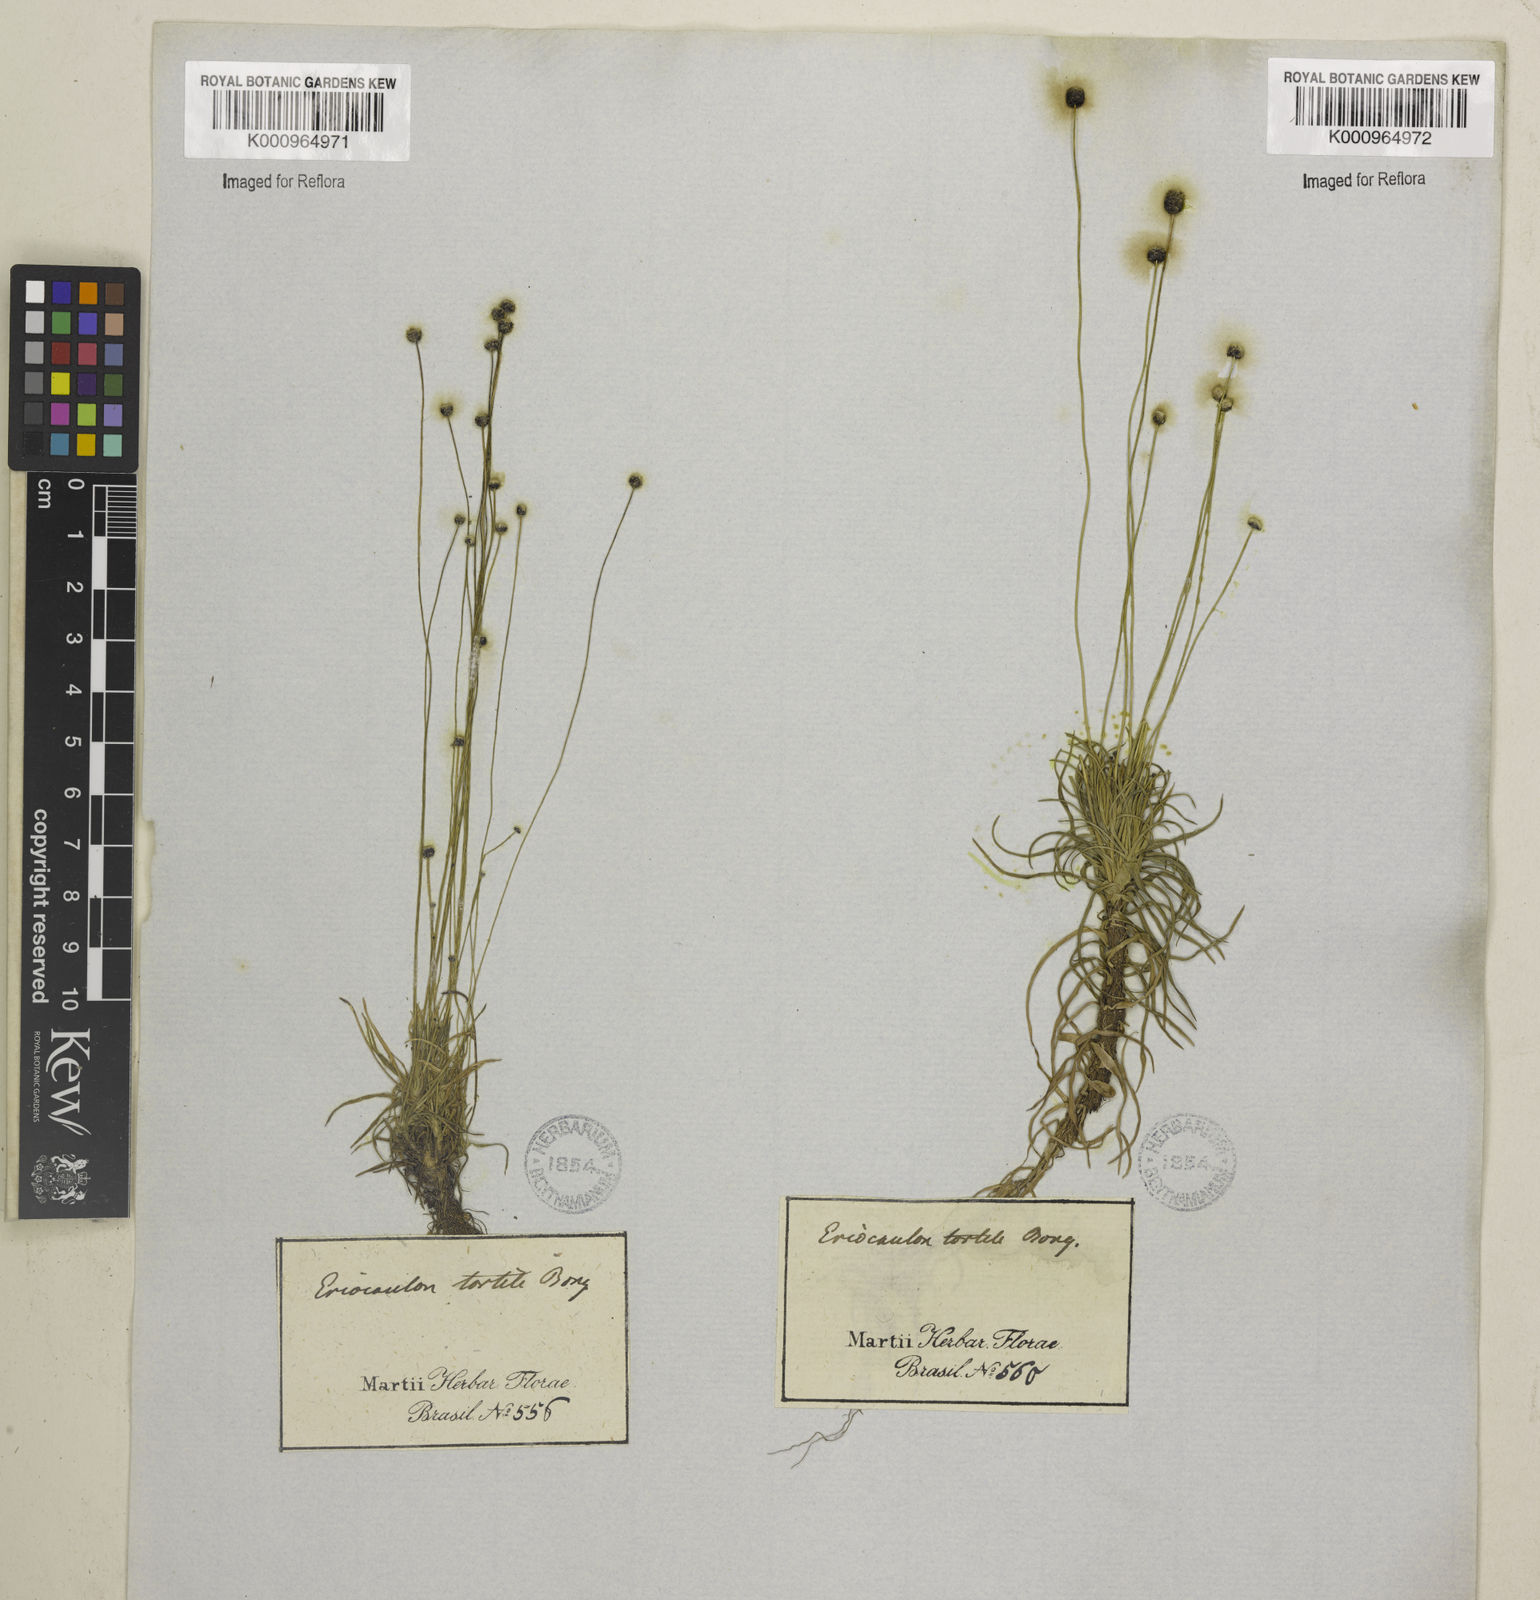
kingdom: Plantae
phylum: Tracheophyta
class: Liliopsida
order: Poales
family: Eriocaulaceae
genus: Paepalanthus
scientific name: Paepalanthus
